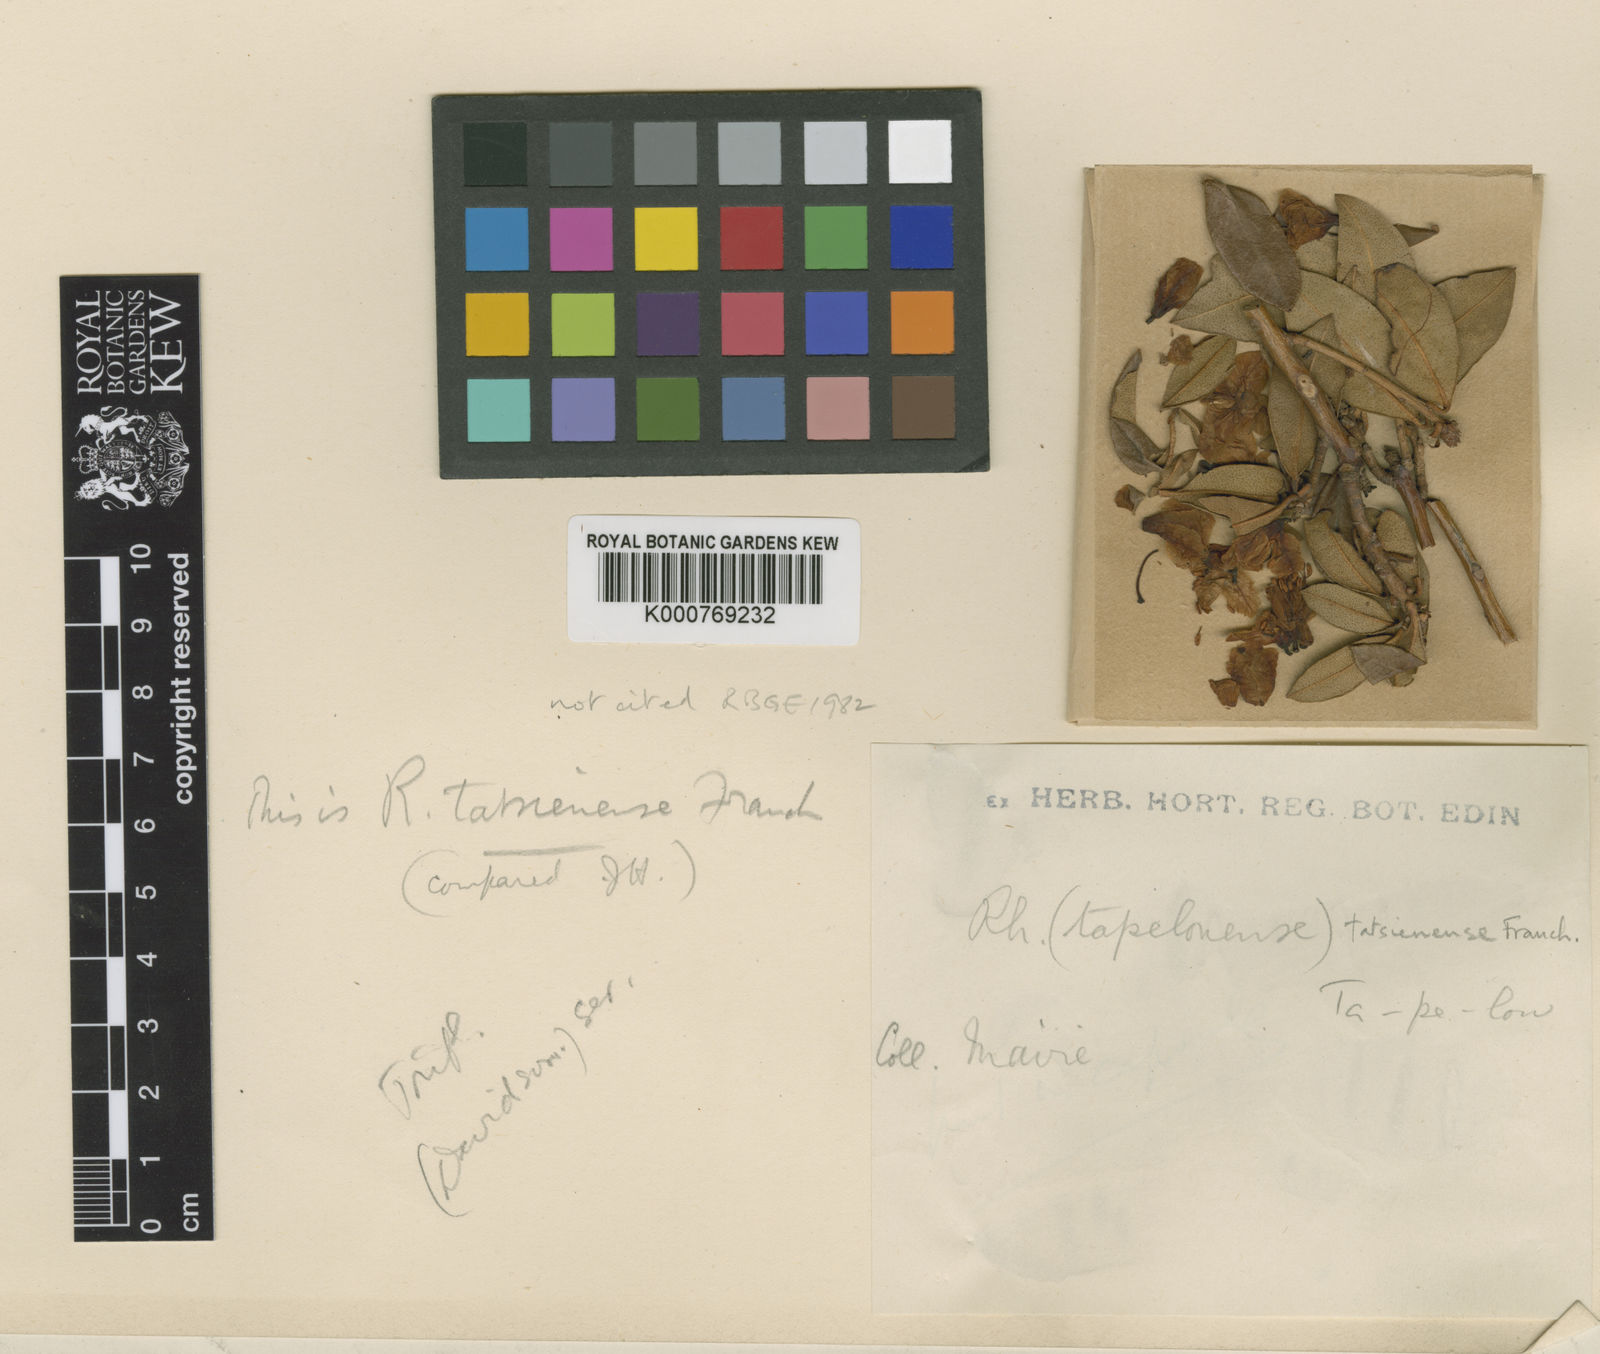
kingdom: Plantae
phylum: Tracheophyta
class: Magnoliopsida
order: Ericales
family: Ericaceae
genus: Rhododendron
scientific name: Rhododendron tatsienense
